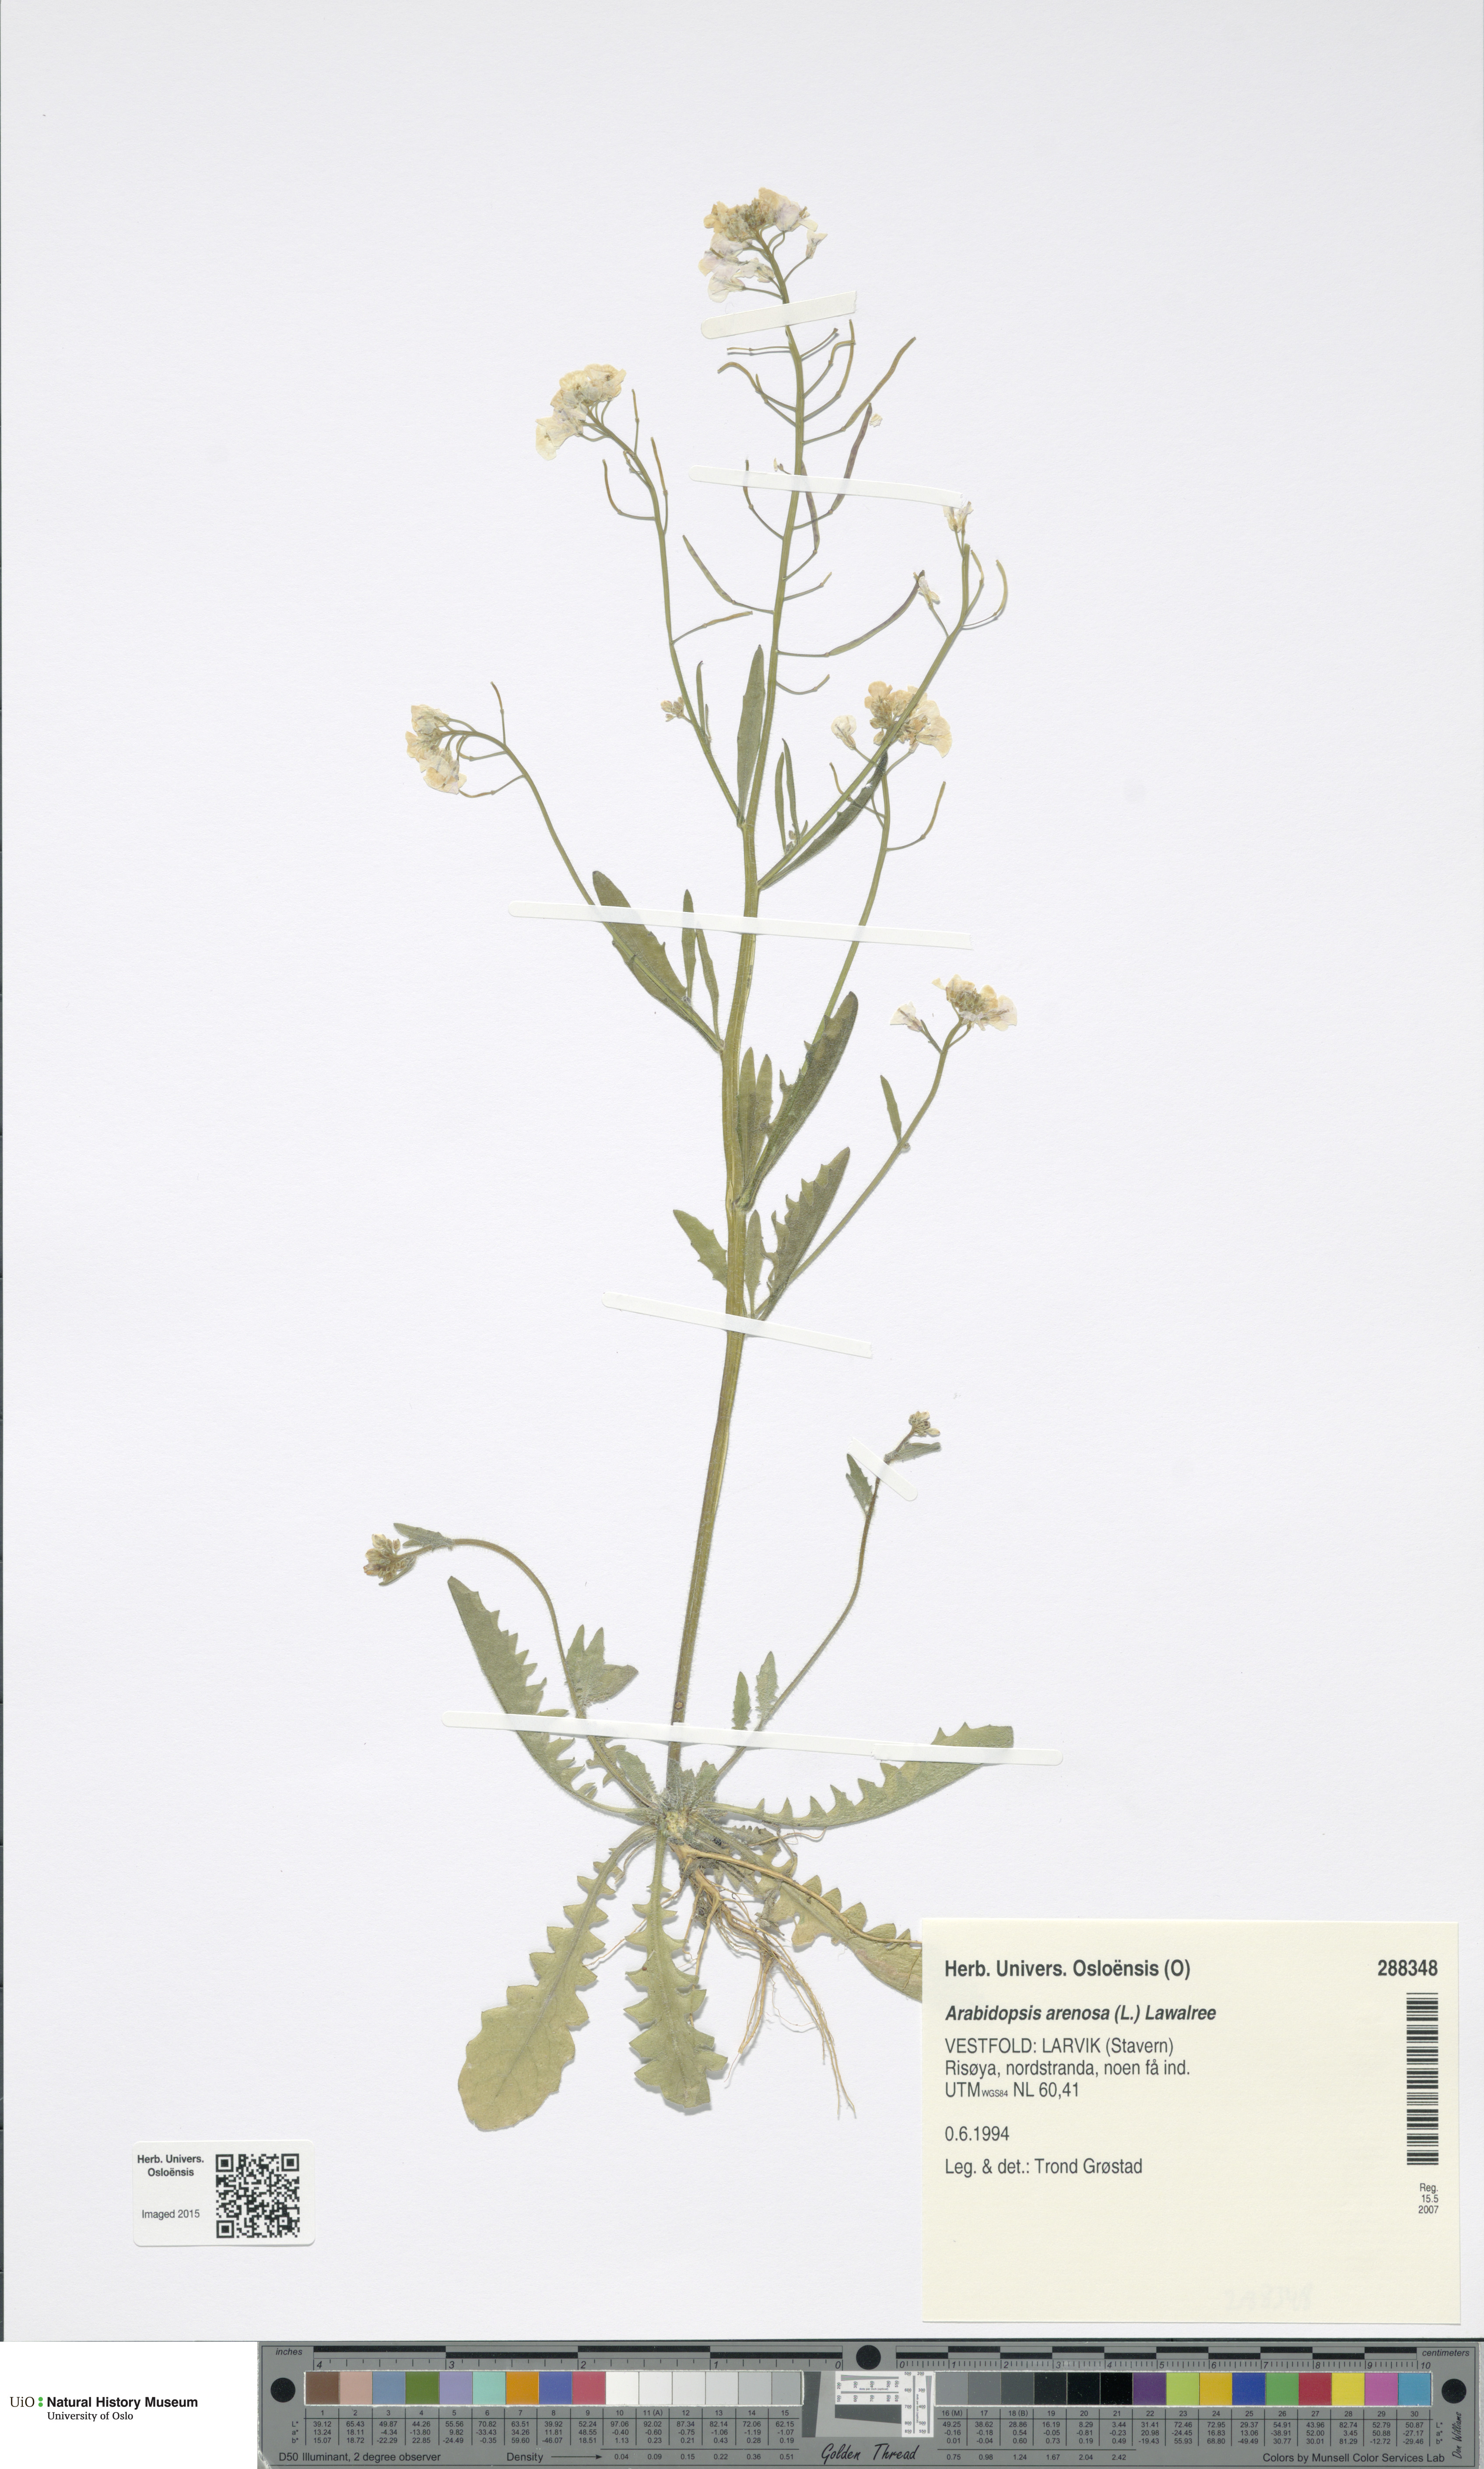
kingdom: Plantae
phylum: Tracheophyta
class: Magnoliopsida
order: Brassicales
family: Brassicaceae
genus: Arabidopsis
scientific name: Arabidopsis arenosa
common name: Sand rock-cress
